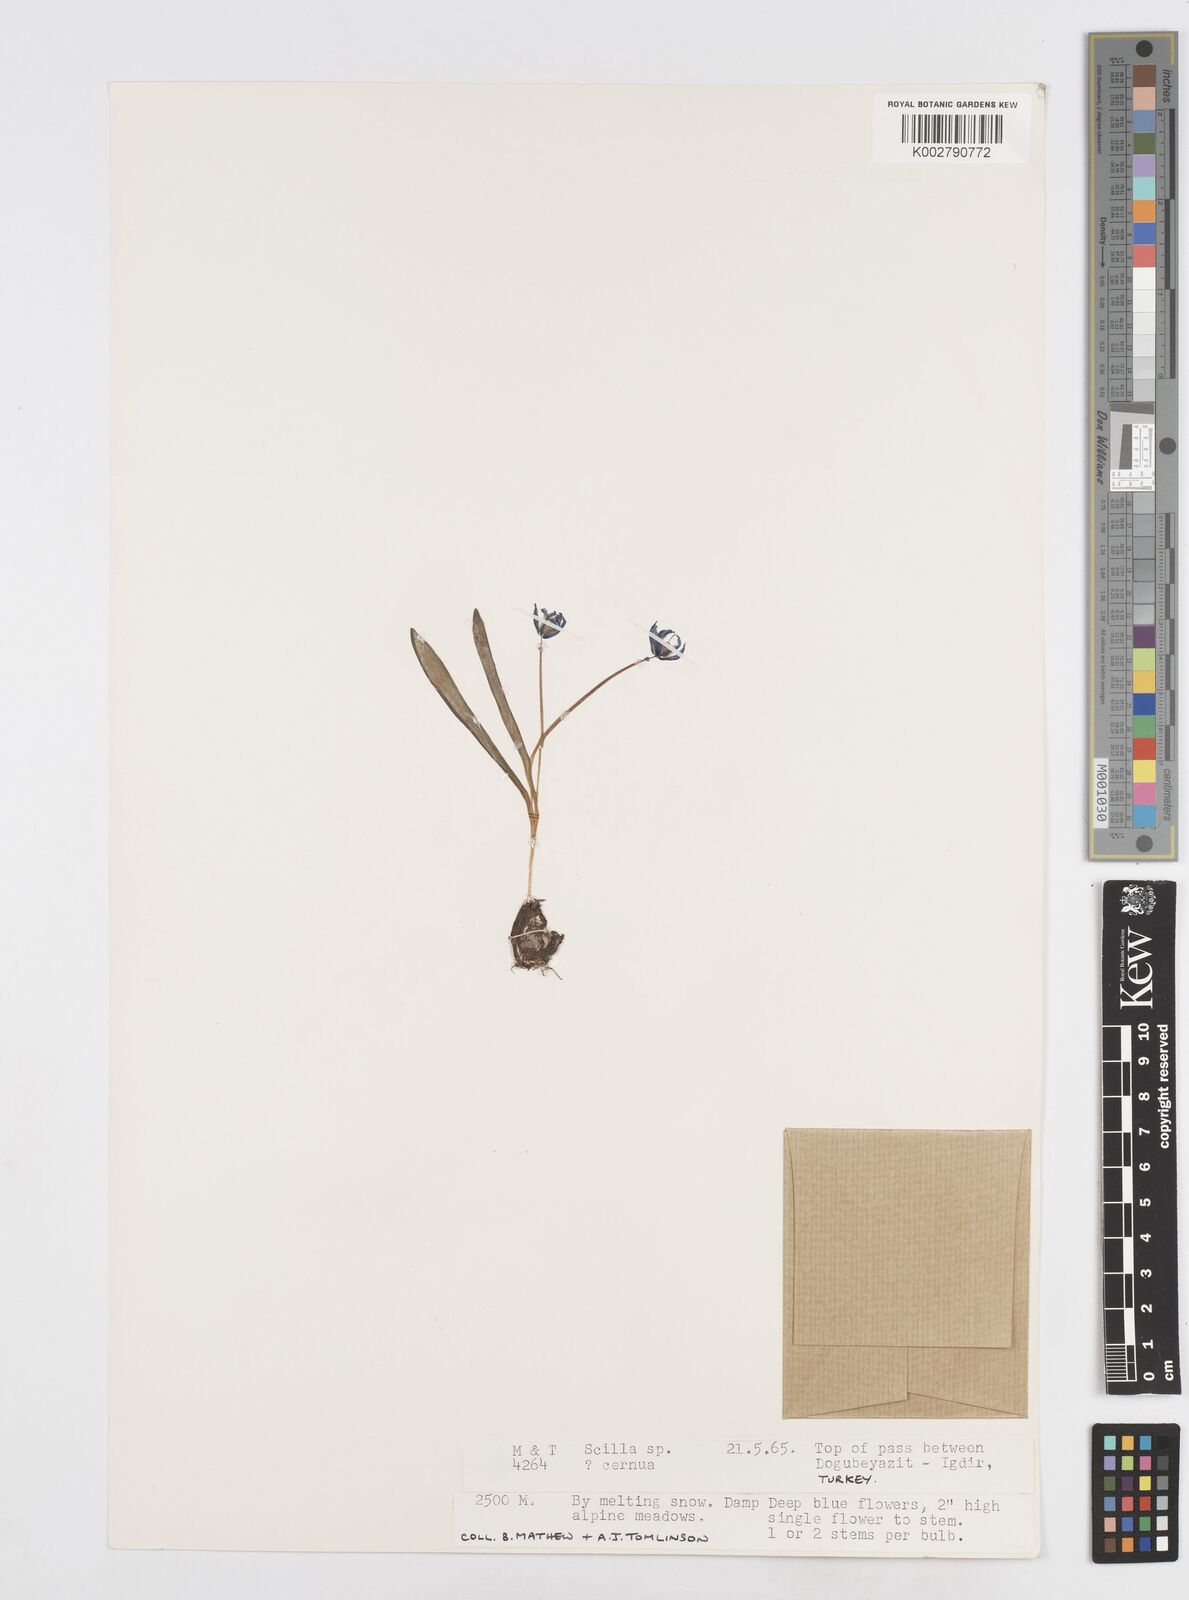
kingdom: Plantae
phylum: Tracheophyta
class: Liliopsida
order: Asparagales
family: Asparagaceae
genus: Scilla
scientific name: Scilla siberica
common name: Siberian squill
